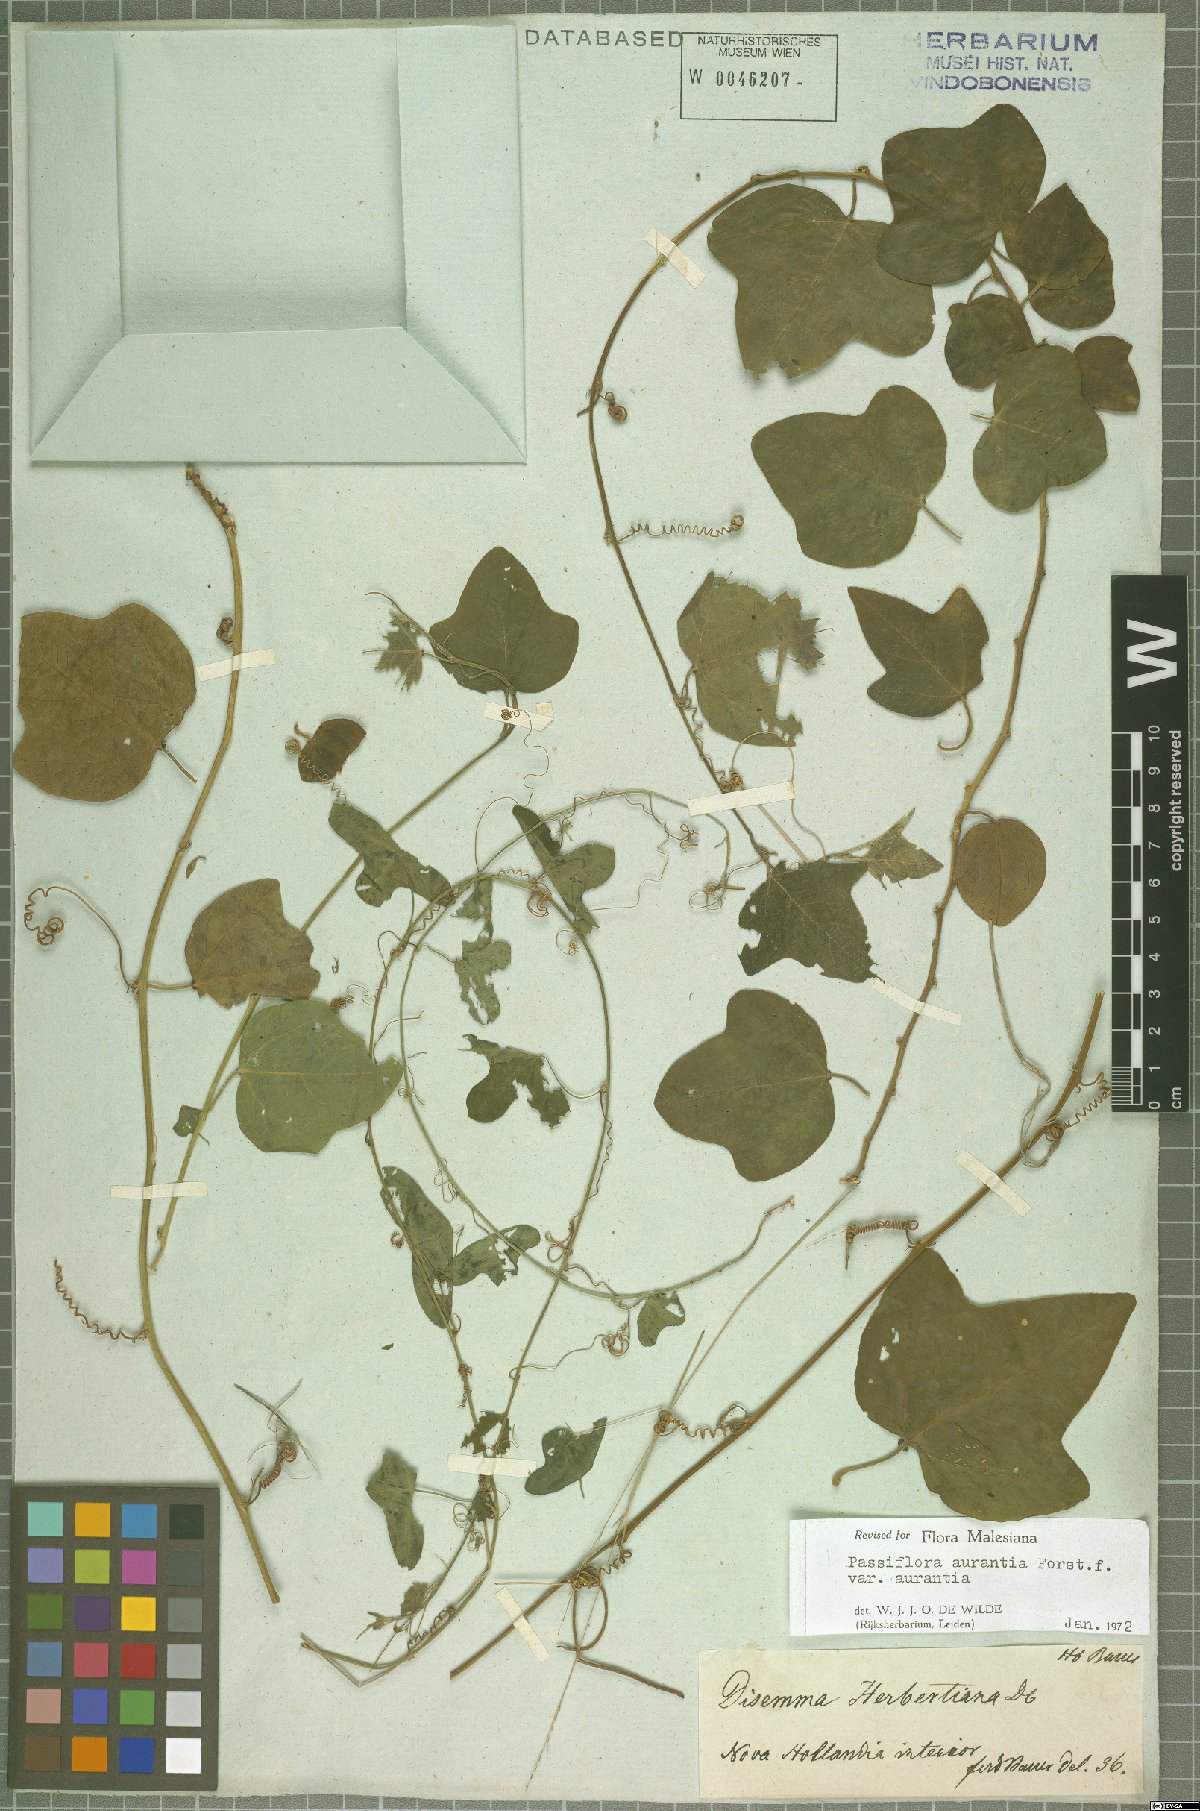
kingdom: Plantae
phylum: Tracheophyta
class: Magnoliopsida
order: Malpighiales
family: Passifloraceae
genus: Passiflora
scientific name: Passiflora aurantia
